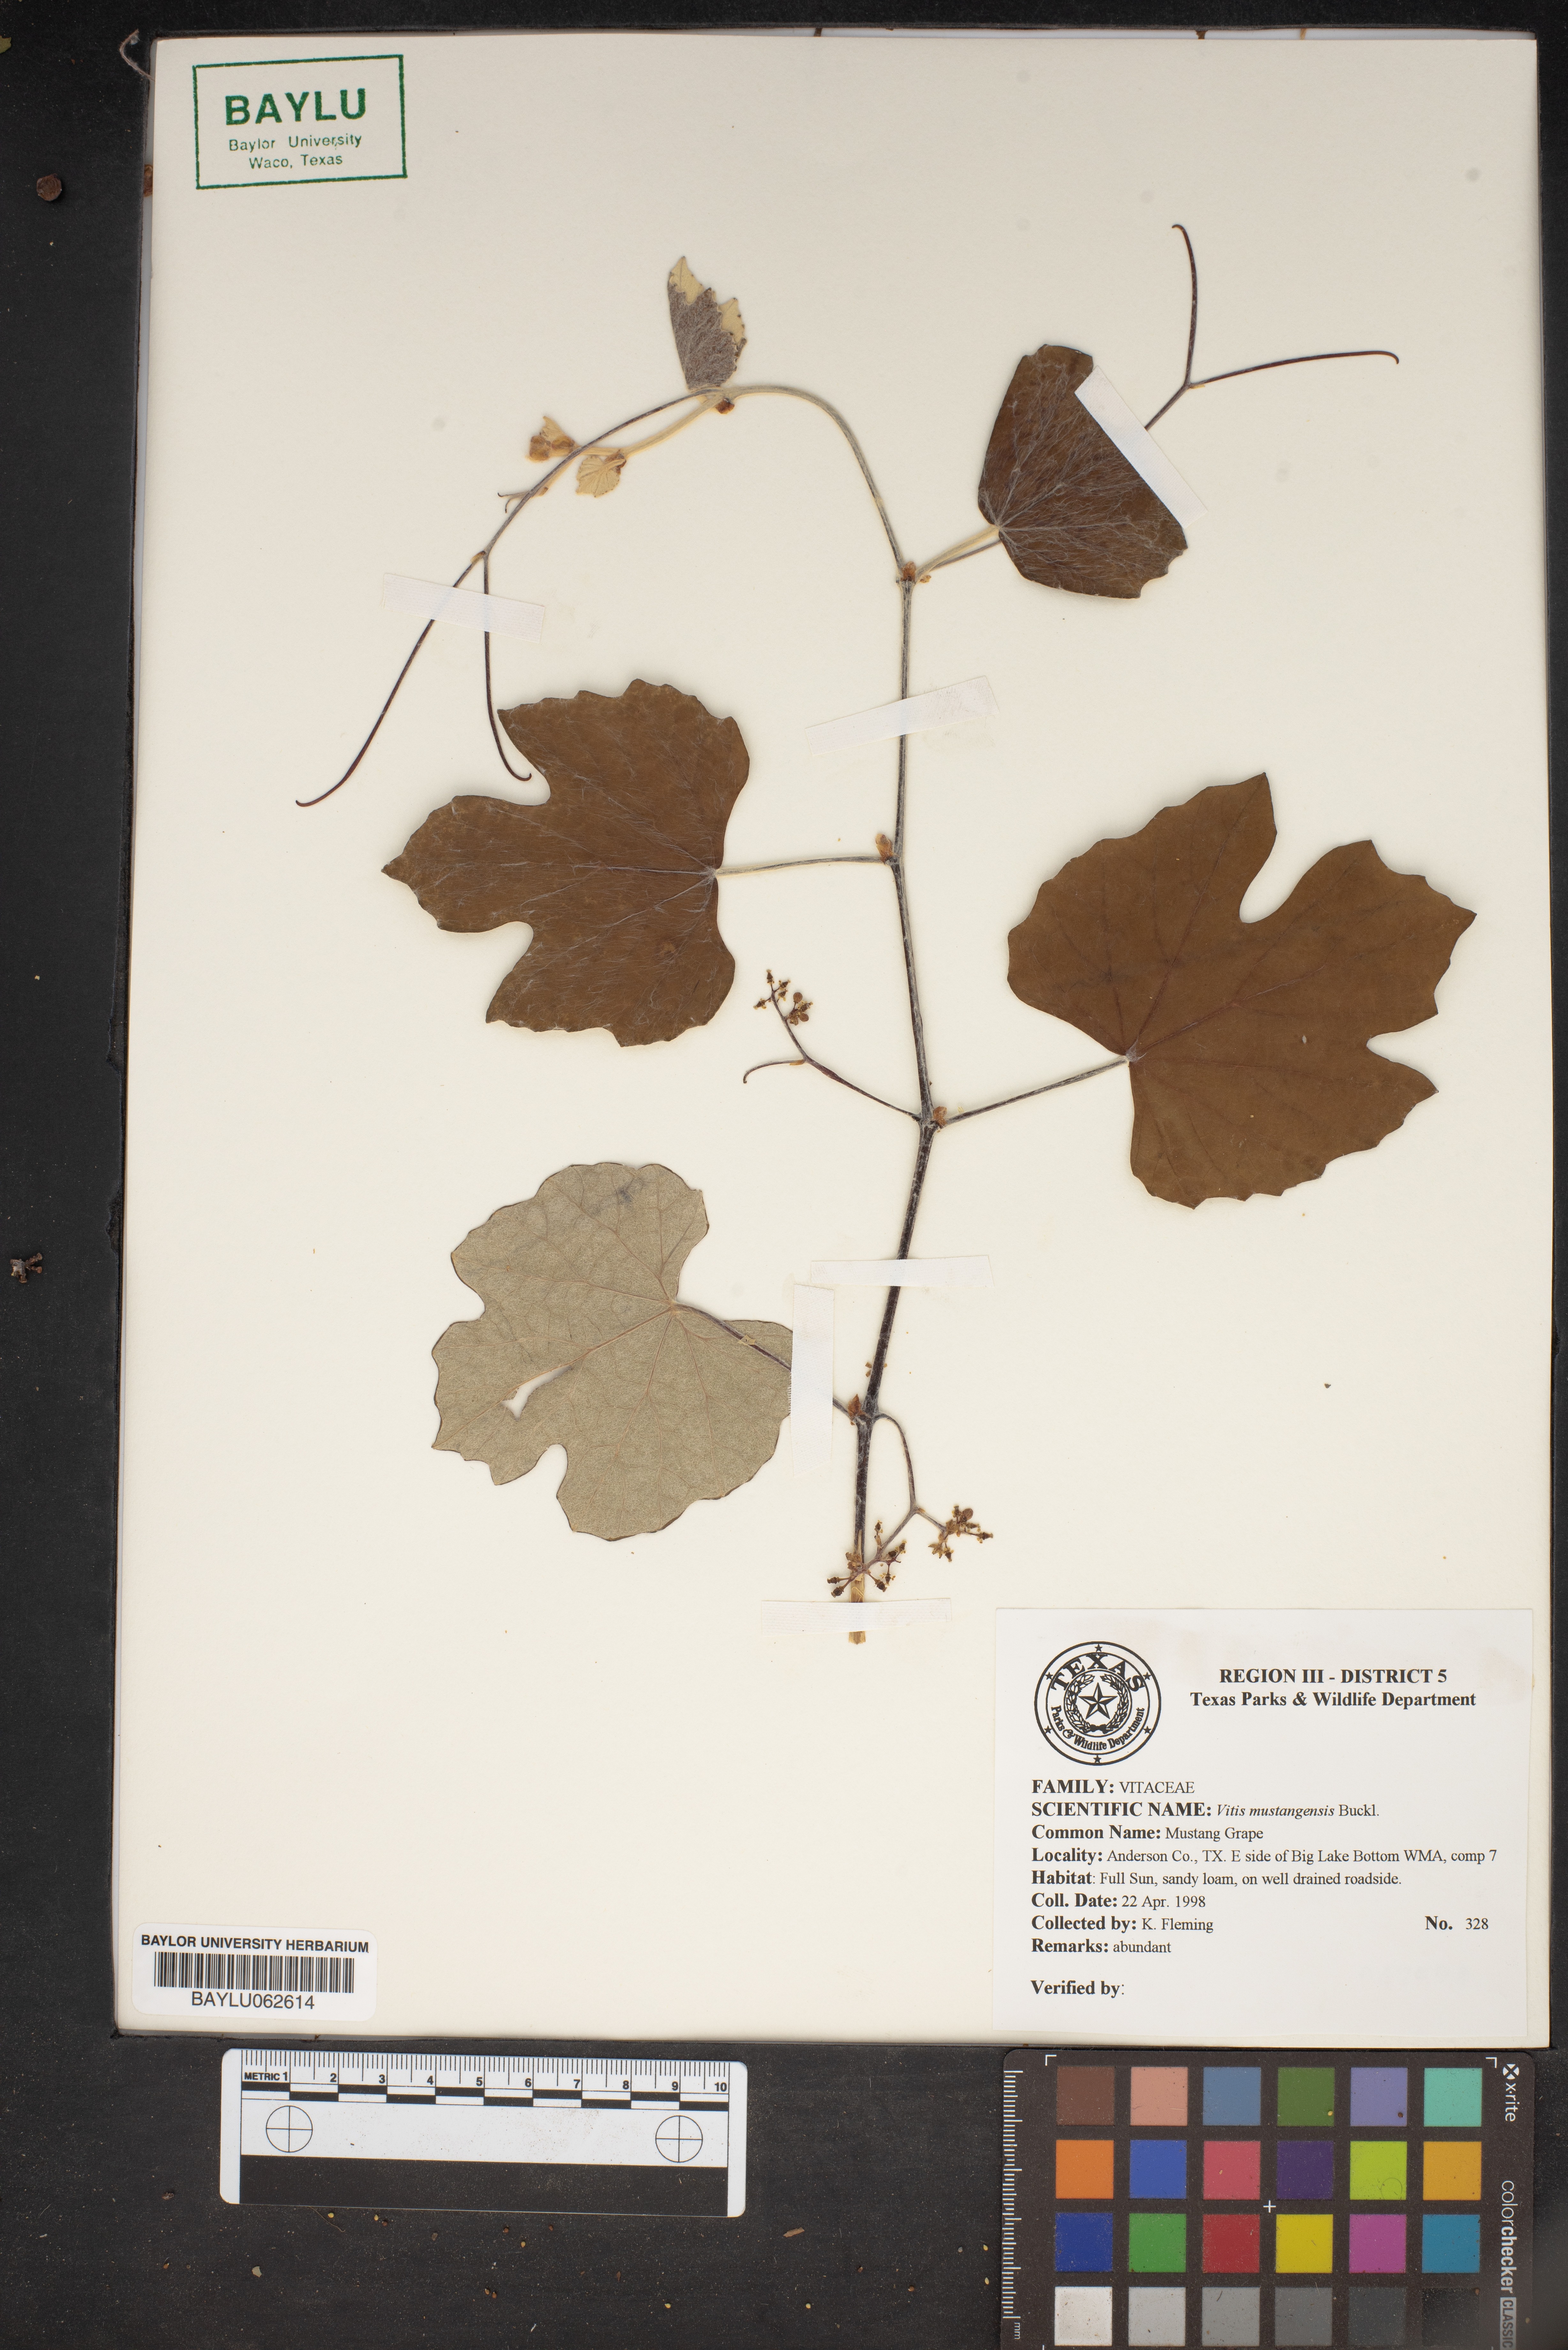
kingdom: Plantae
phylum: Tracheophyta
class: Magnoliopsida
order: Vitales
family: Vitaceae
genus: Vitis
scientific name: Vitis mustangensis
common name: Mustang grape
